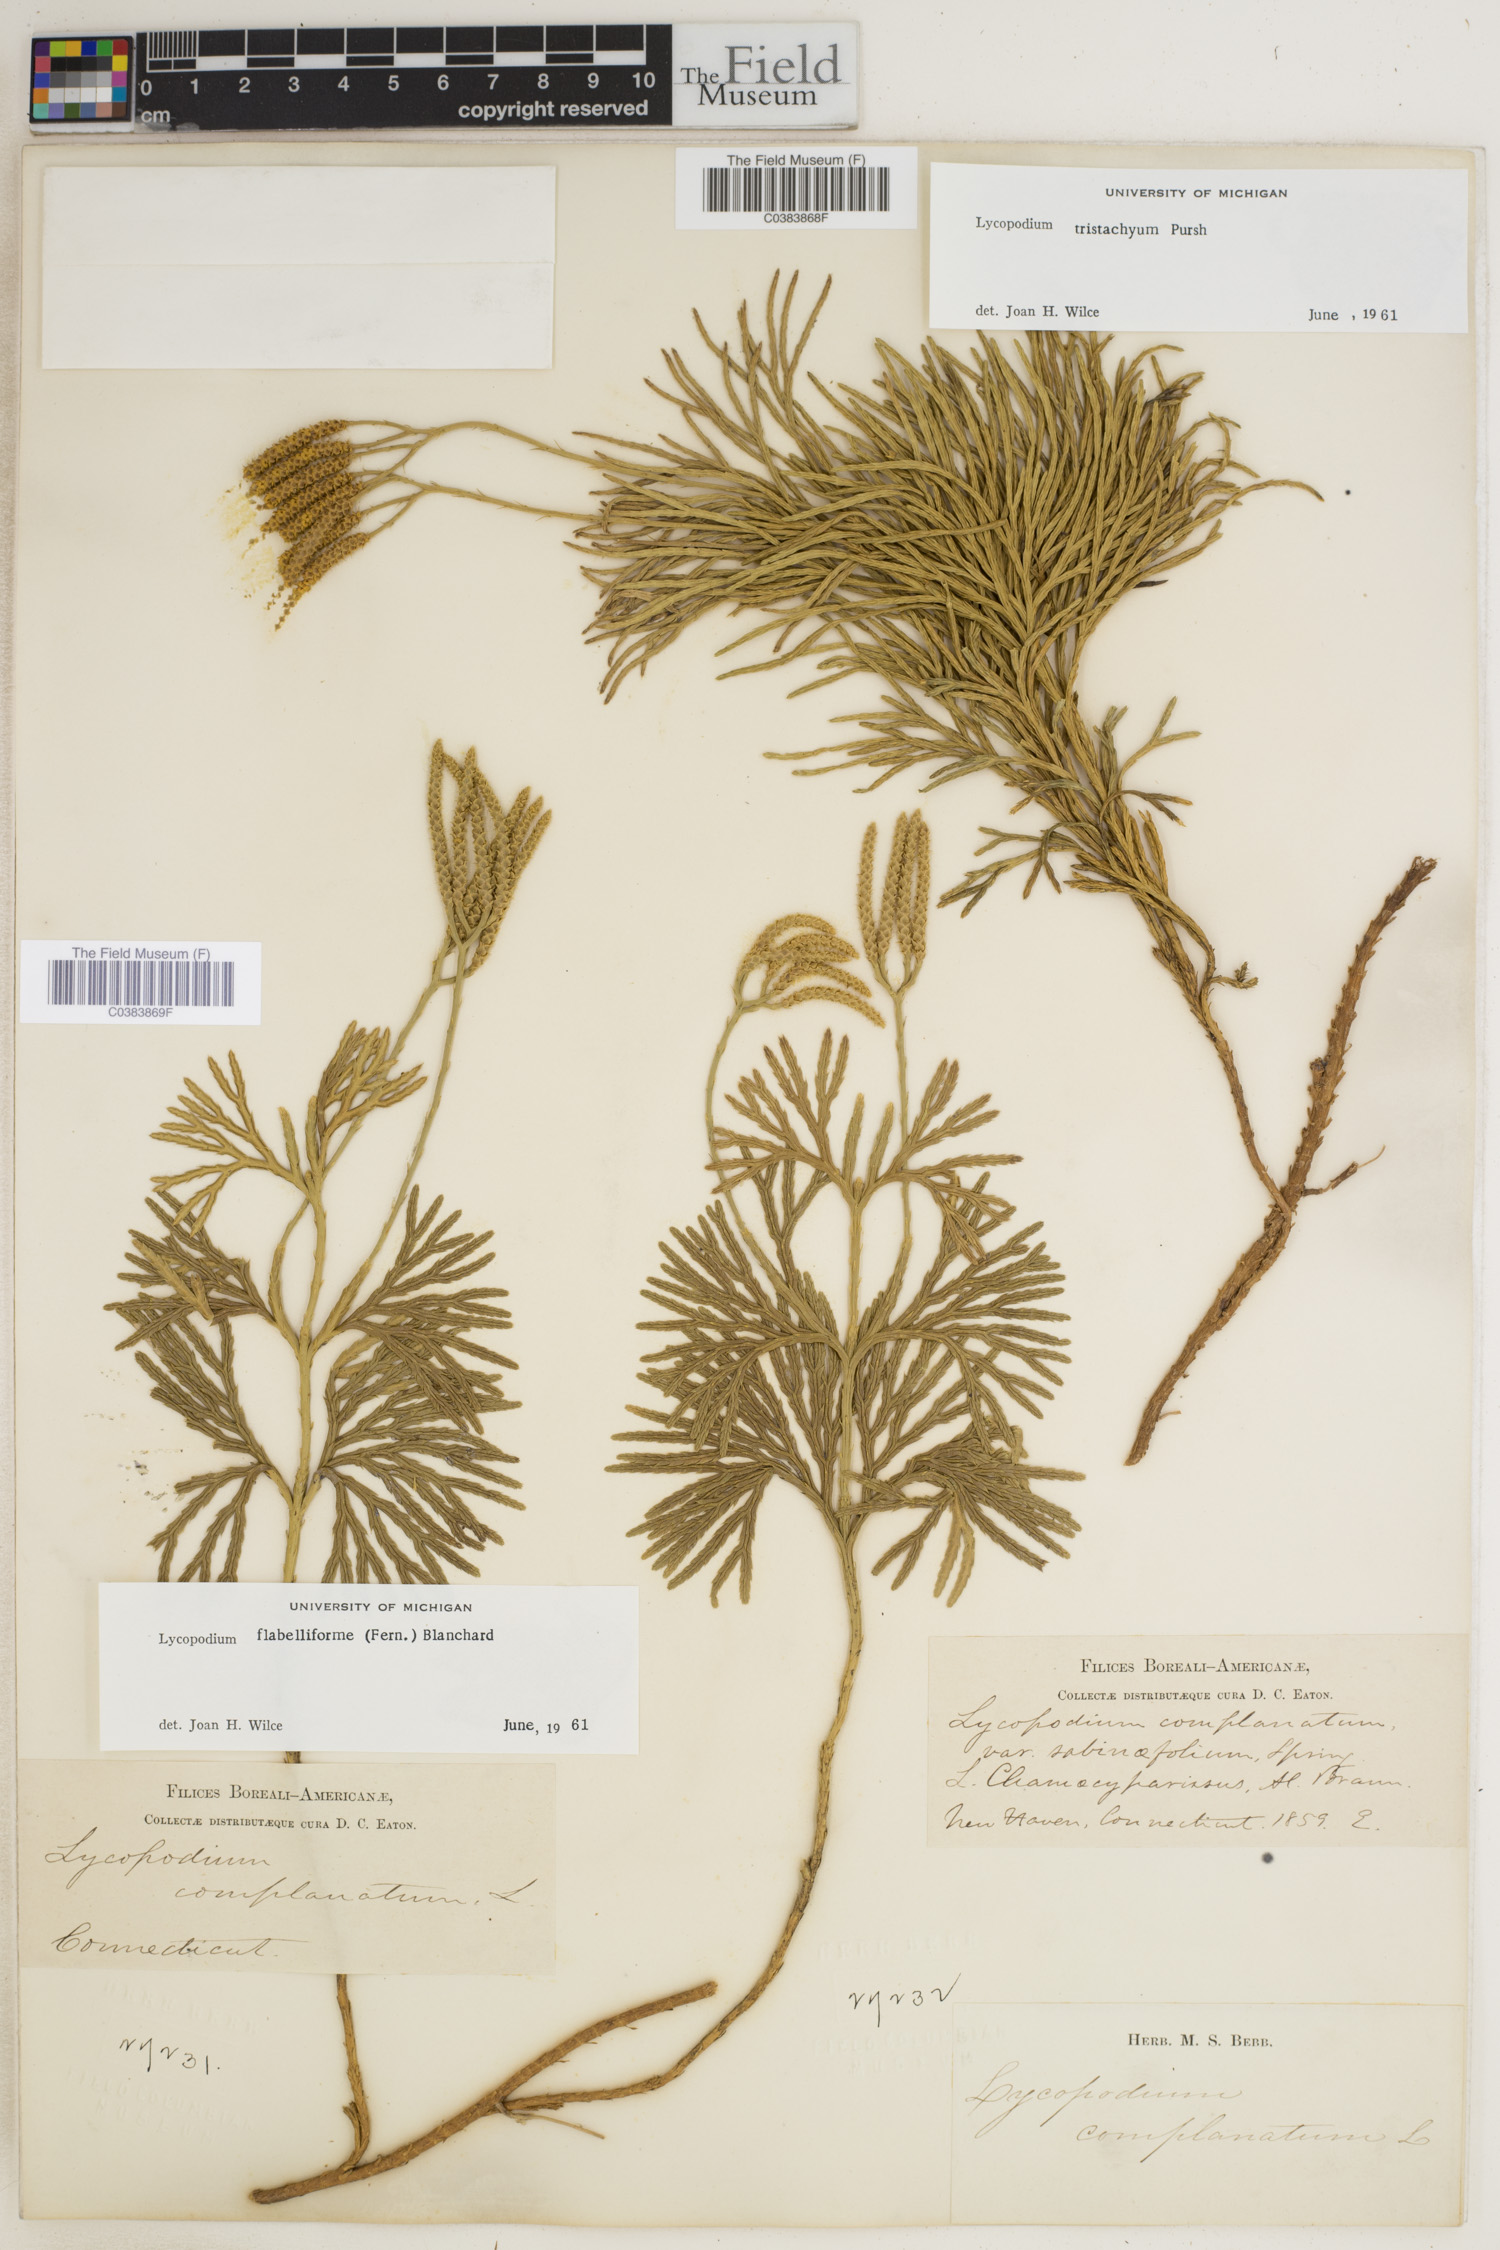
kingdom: Plantae
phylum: Tracheophyta
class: Lycopodiopsida
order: Lycopodiales
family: Lycopodiaceae
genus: Diphasiastrum
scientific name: Diphasiastrum digitatum
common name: Southern running-pine
